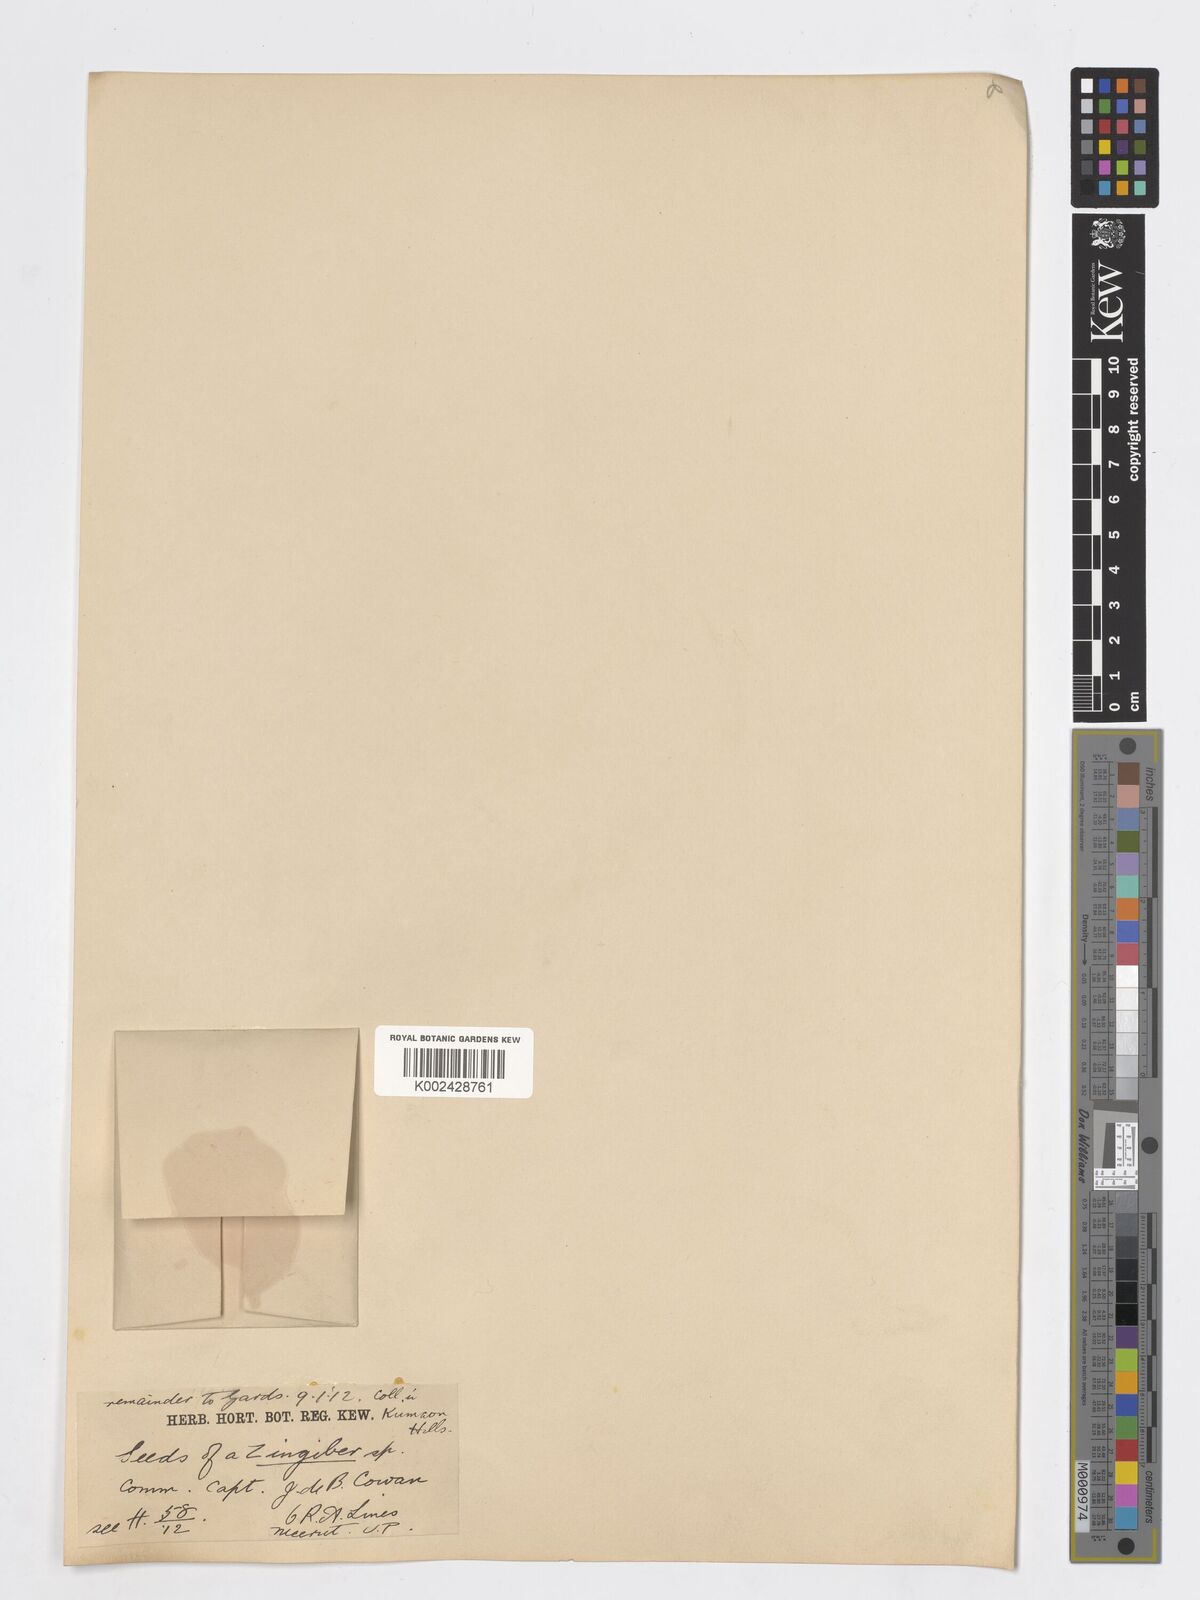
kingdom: Plantae
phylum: Tracheophyta
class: Liliopsida
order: Zingiberales
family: Zingiberaceae
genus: Zingiber
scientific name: Zingiber
